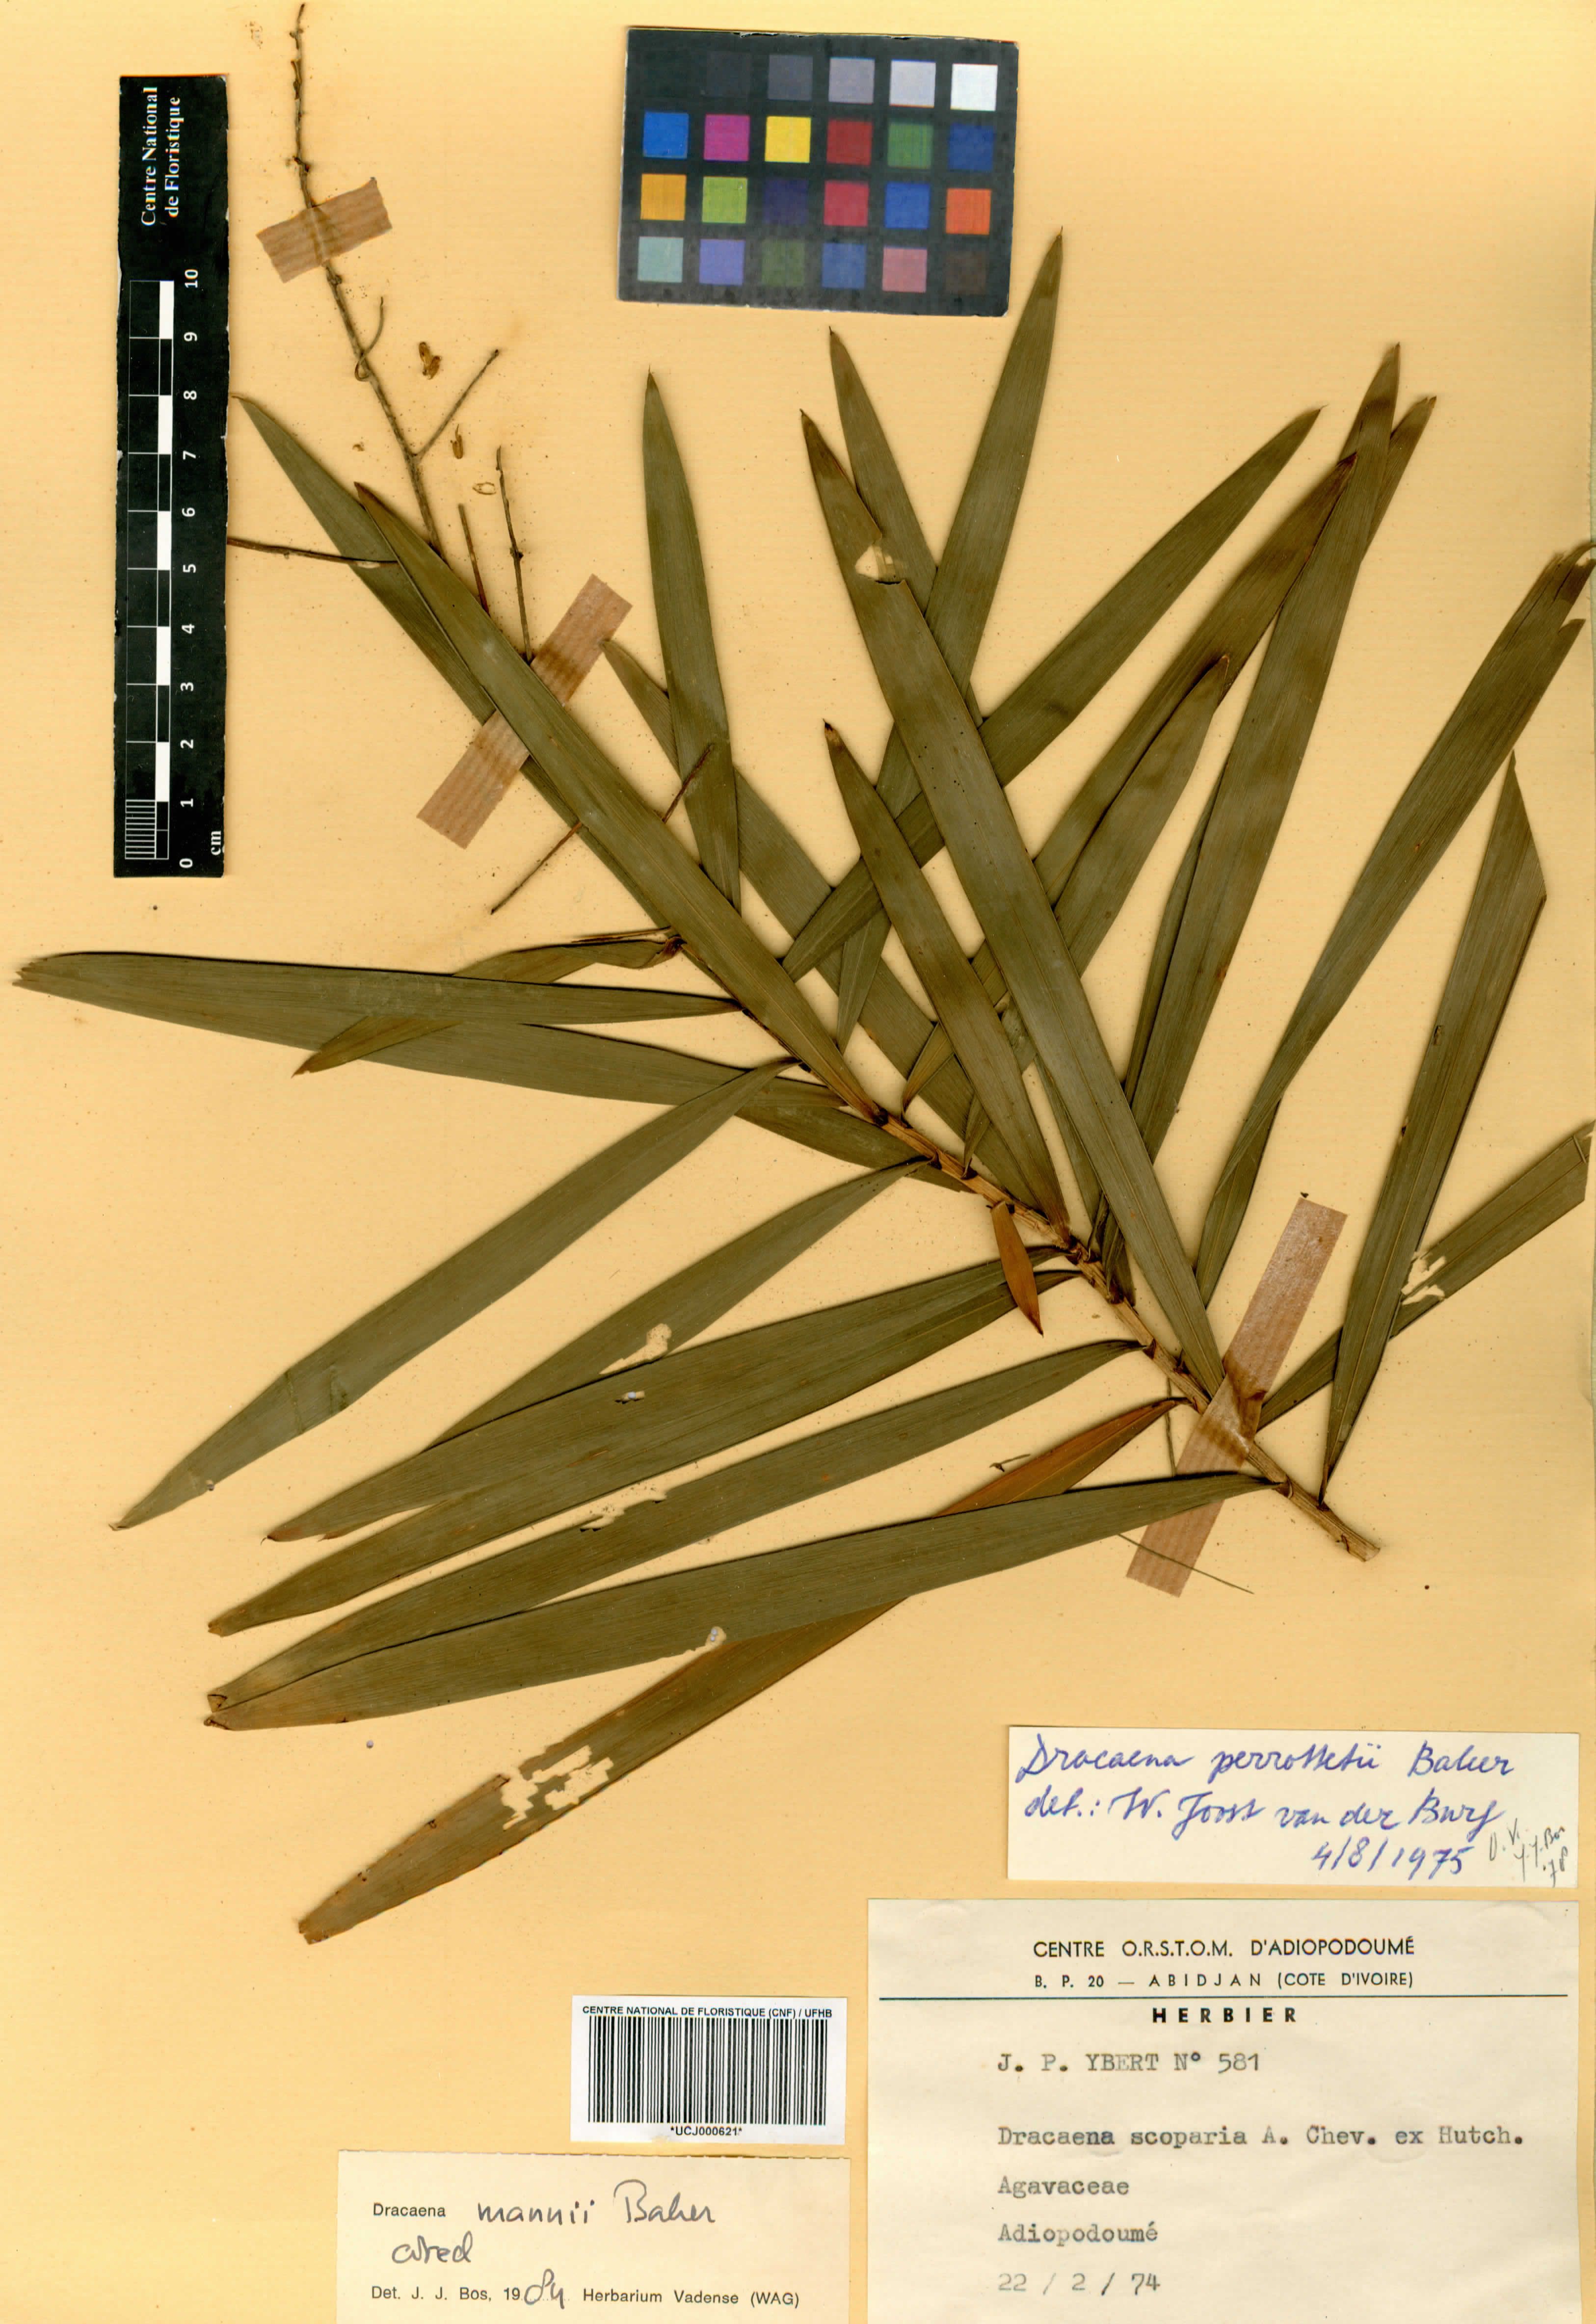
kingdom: Plantae
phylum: Tracheophyta
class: Liliopsida
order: Asparagales
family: Asparagaceae
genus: Dracaena
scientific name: Dracaena mannii
